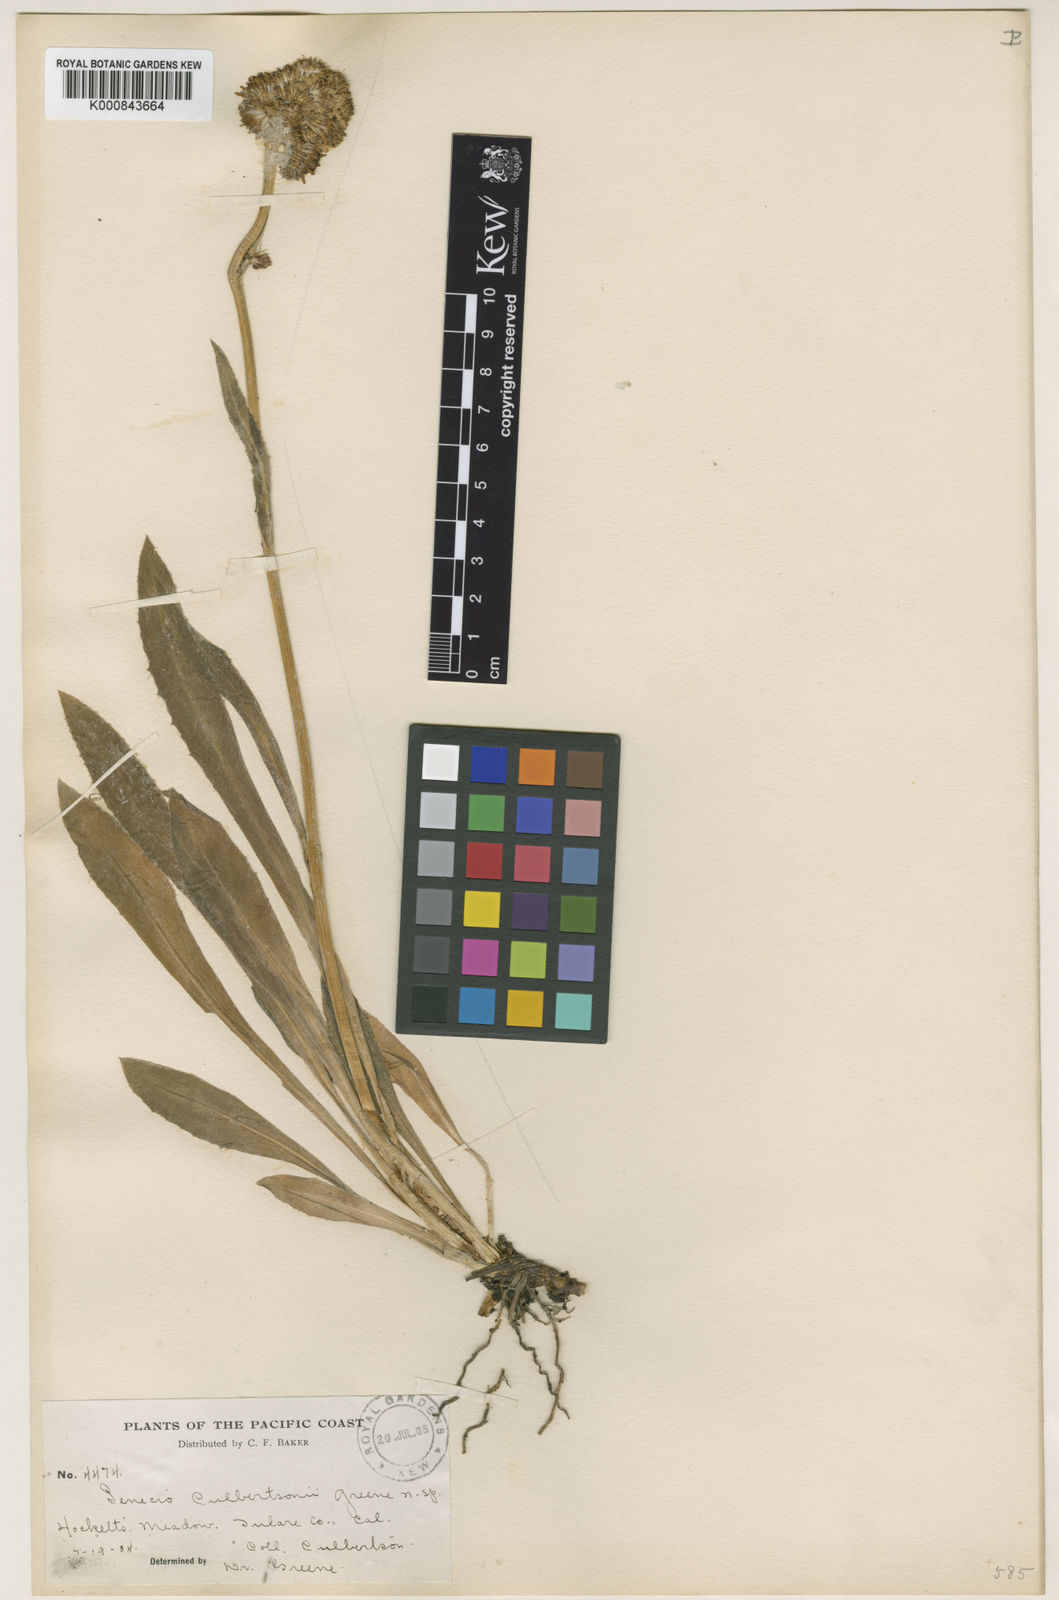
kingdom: Plantae
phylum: Tracheophyta
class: Magnoliopsida
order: Asterales
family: Asteraceae
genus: Senecio
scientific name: Senecio
